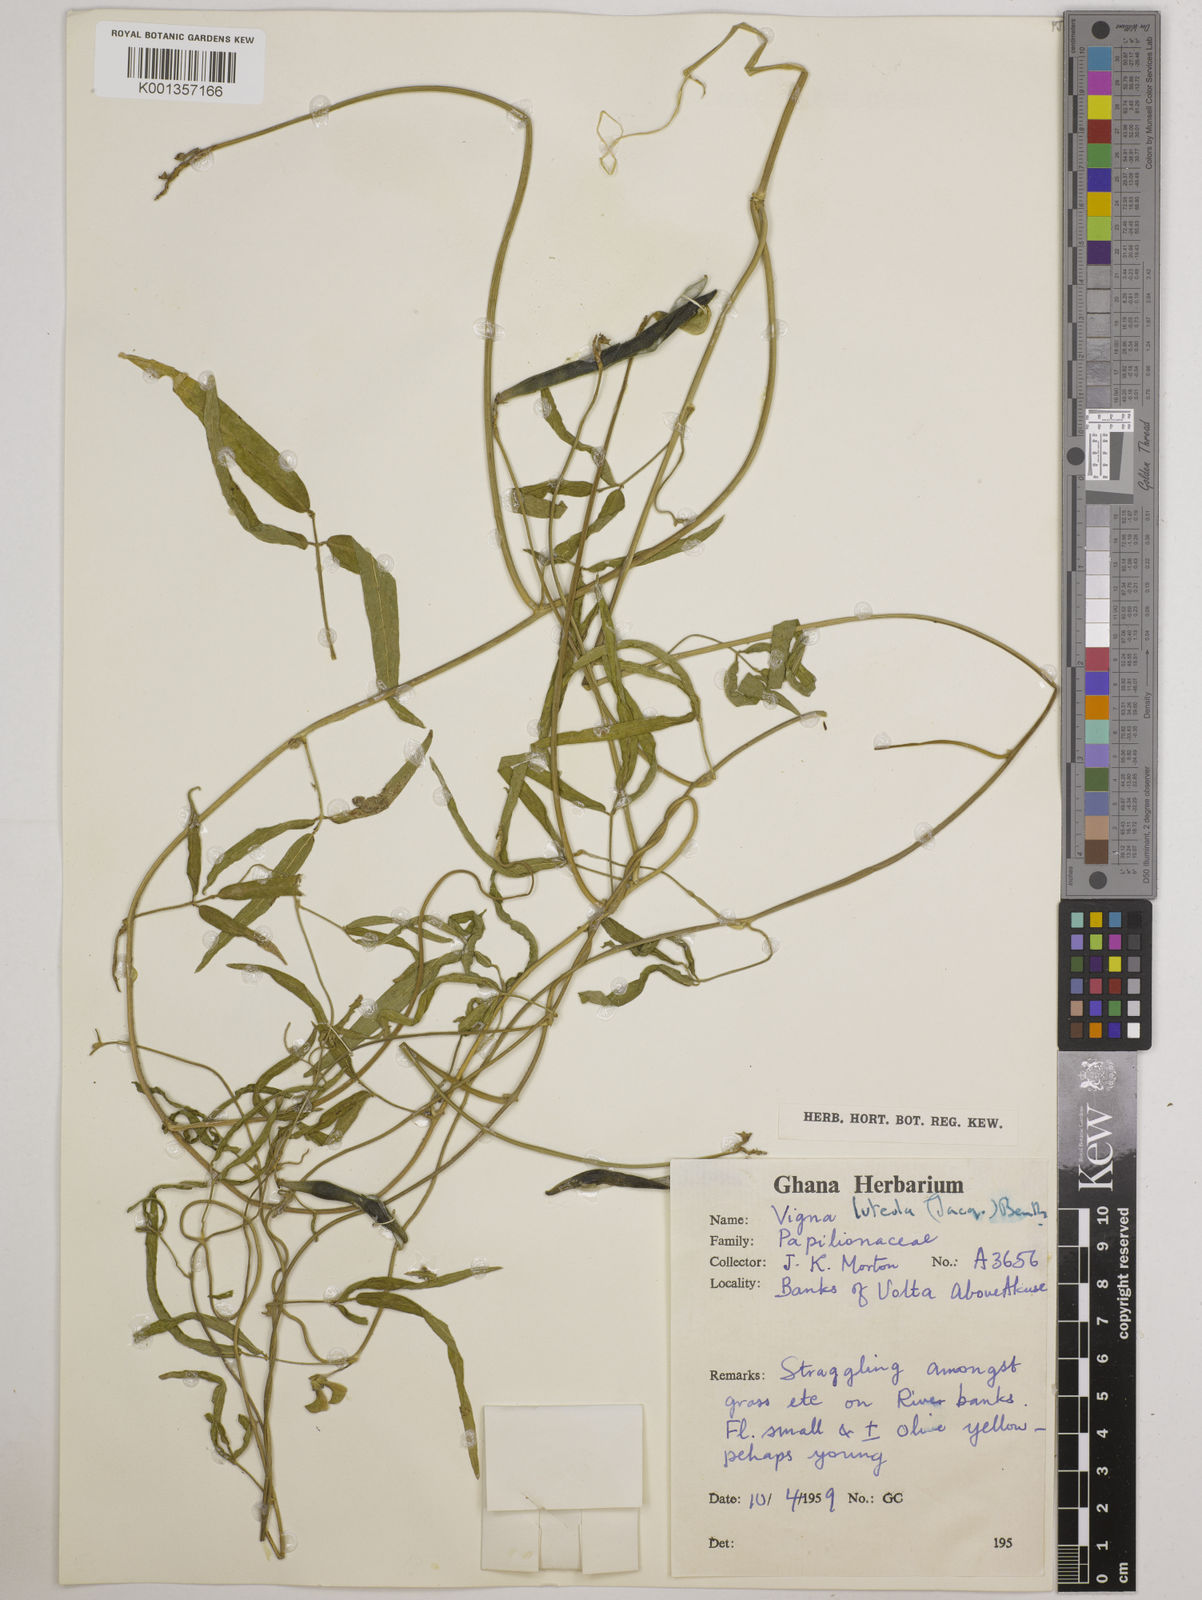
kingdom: Plantae
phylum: Tracheophyta
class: Magnoliopsida
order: Fabales
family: Fabaceae
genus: Vigna
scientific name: Vigna oblongifolia
